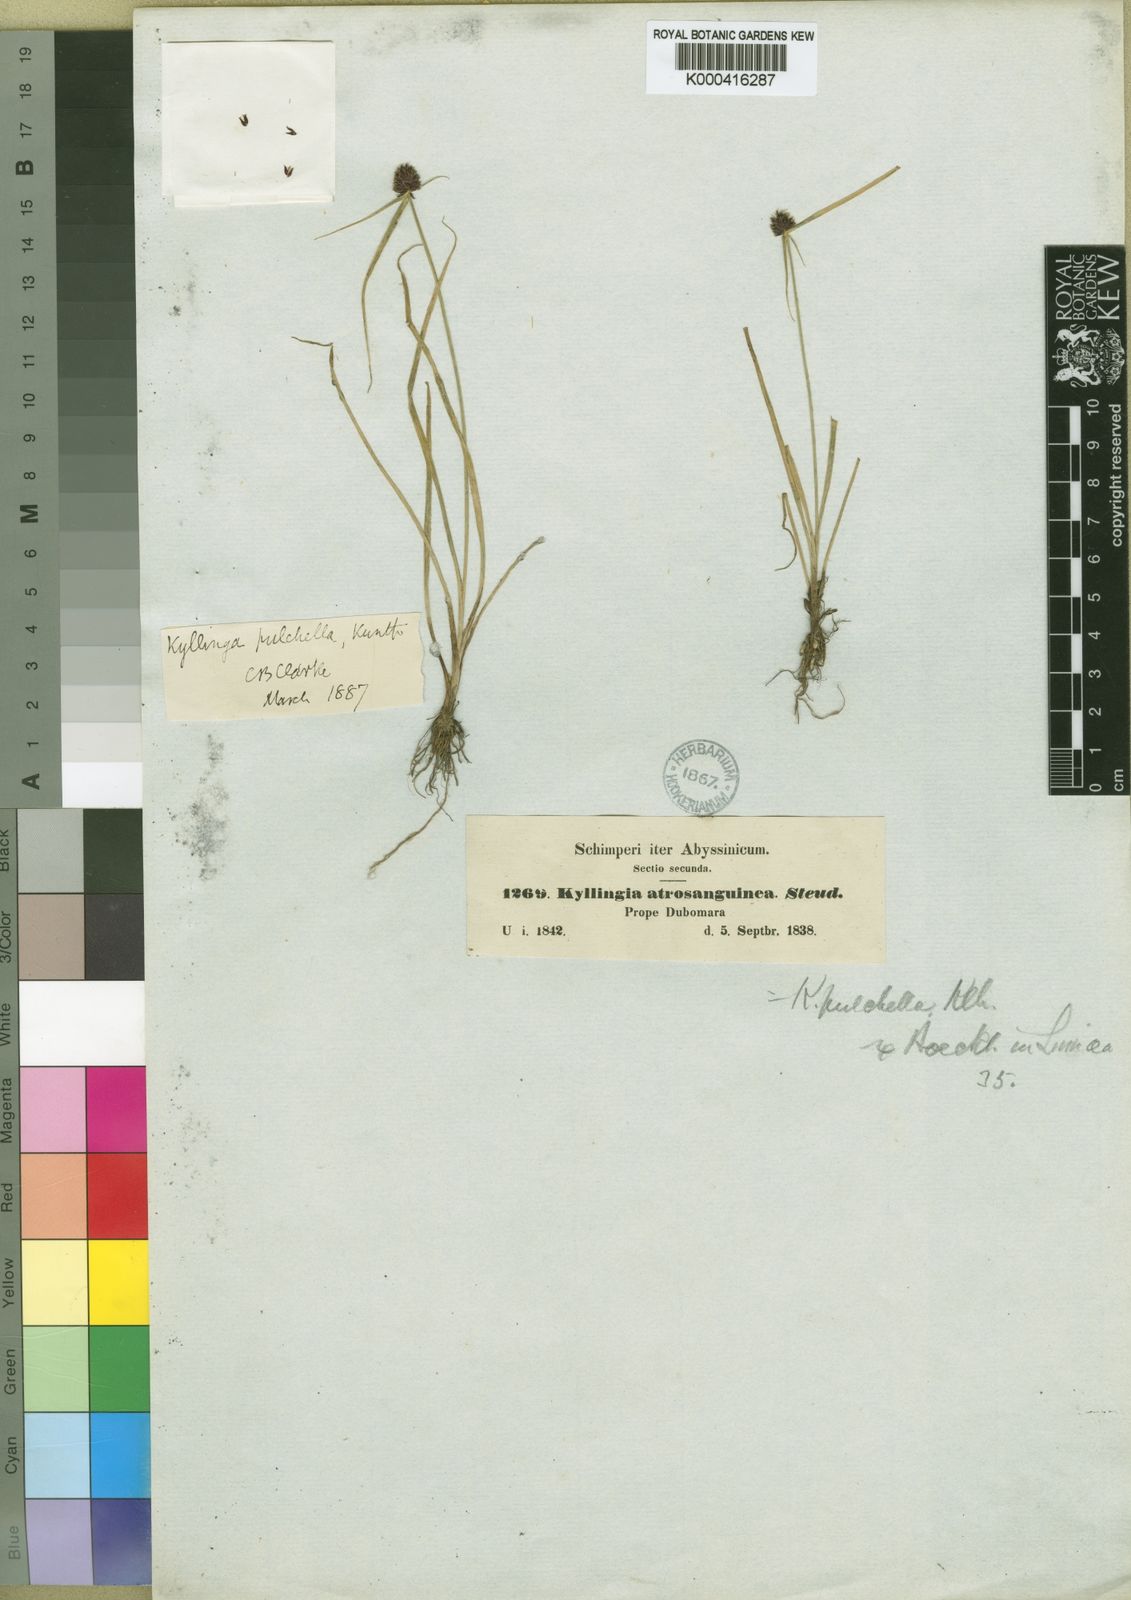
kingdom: Plantae
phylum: Tracheophyta
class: Liliopsida
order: Poales
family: Cyperaceae
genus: Cyperus
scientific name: Cyperus richardii
